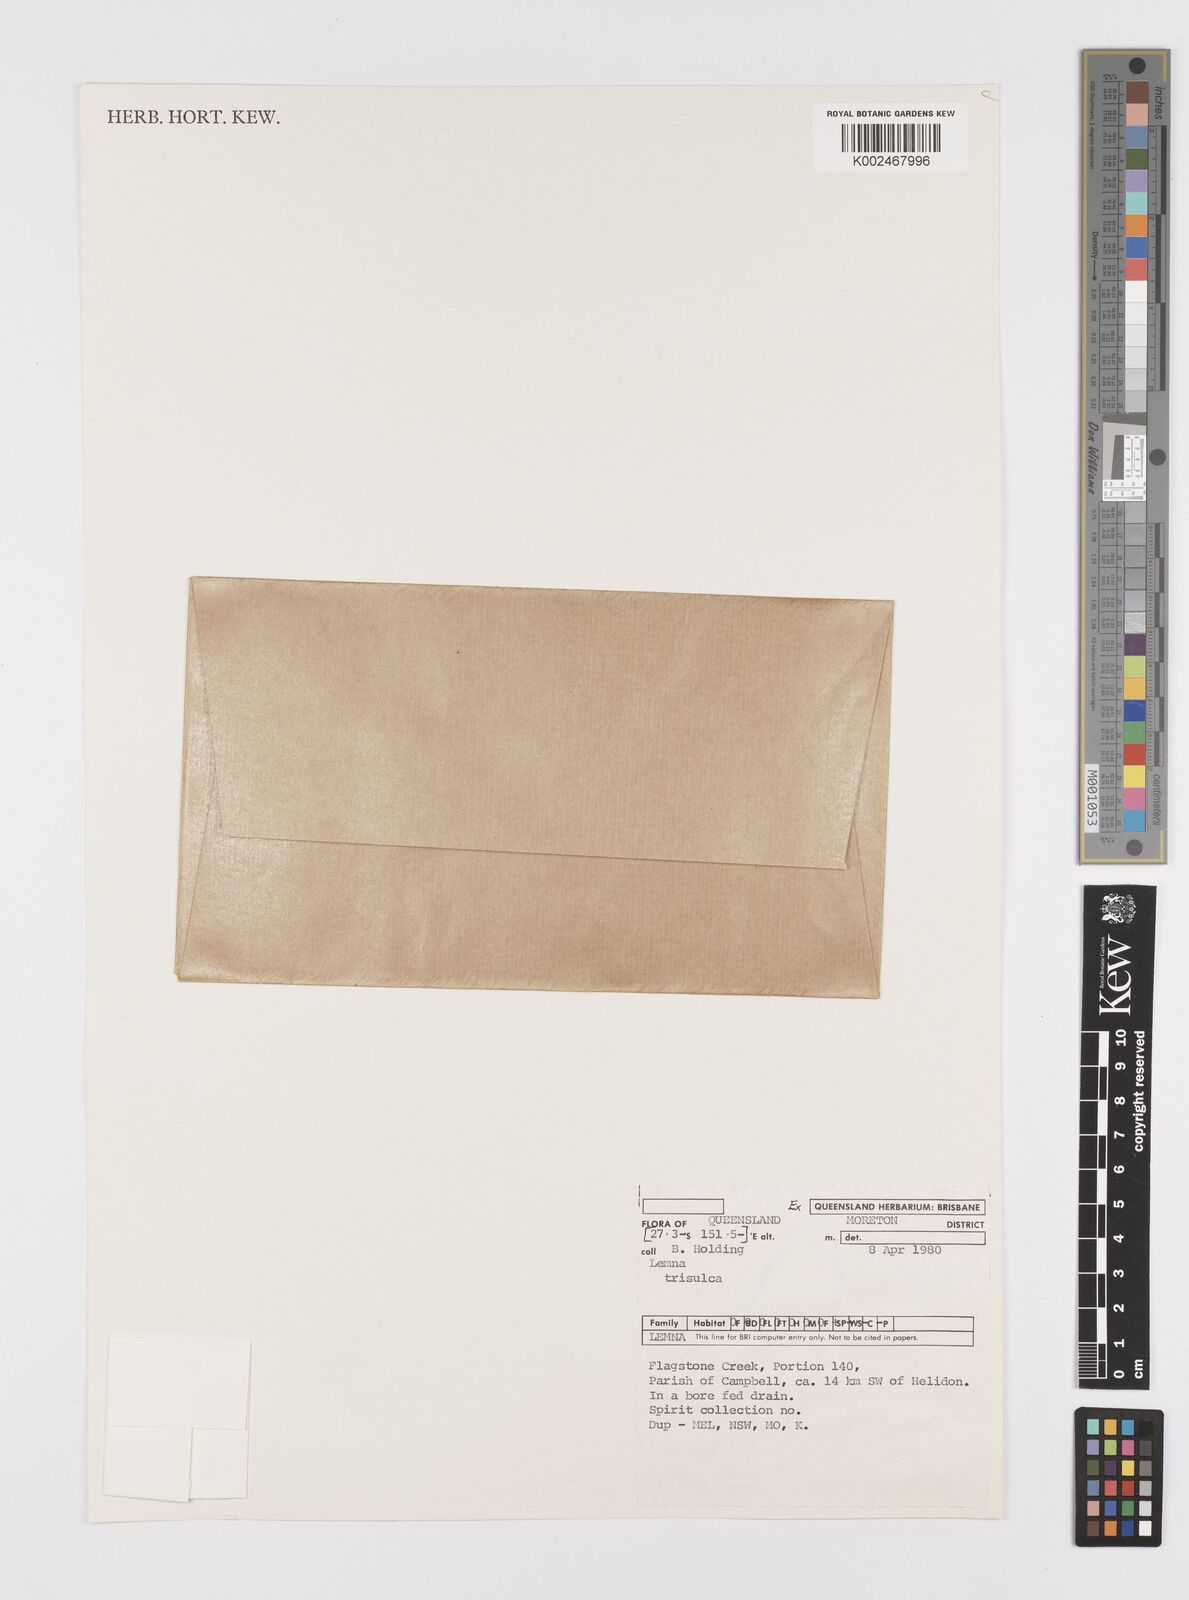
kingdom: Plantae
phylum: Tracheophyta
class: Liliopsida
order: Alismatales
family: Araceae
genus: Lemna
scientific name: Lemna trisulca
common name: Ivy-leaved duckweed
